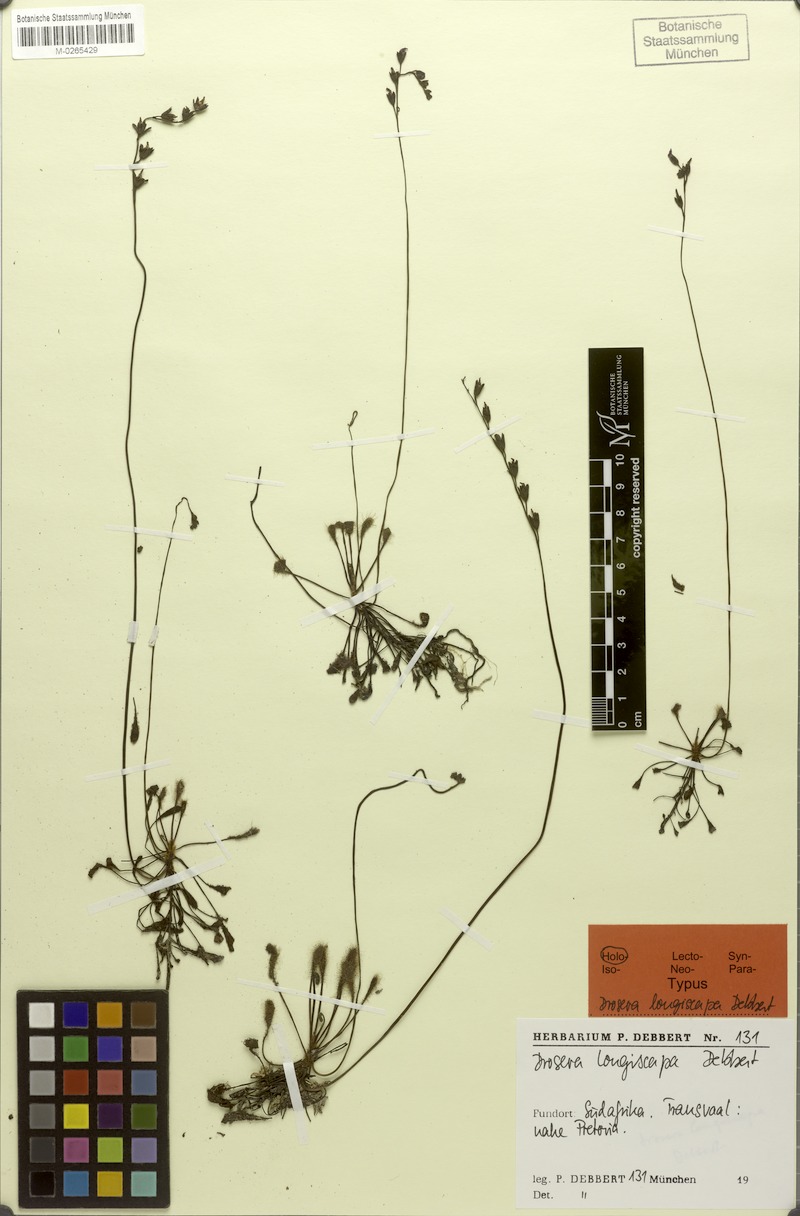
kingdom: Plantae
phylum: Tracheophyta
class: Magnoliopsida
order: Caryophyllales
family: Droseraceae
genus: Drosera
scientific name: Drosera madagascariensis
